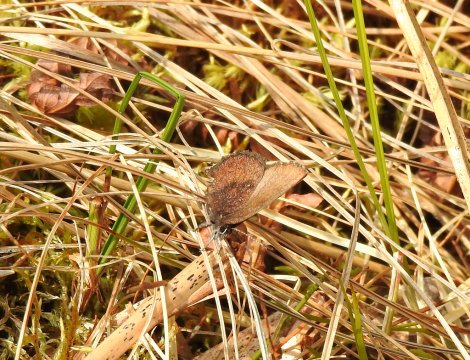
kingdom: Animalia
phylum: Arthropoda
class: Insecta
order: Lepidoptera
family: Lycaenidae
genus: Incisalia
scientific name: Incisalia irioides
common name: Brown Elfin
